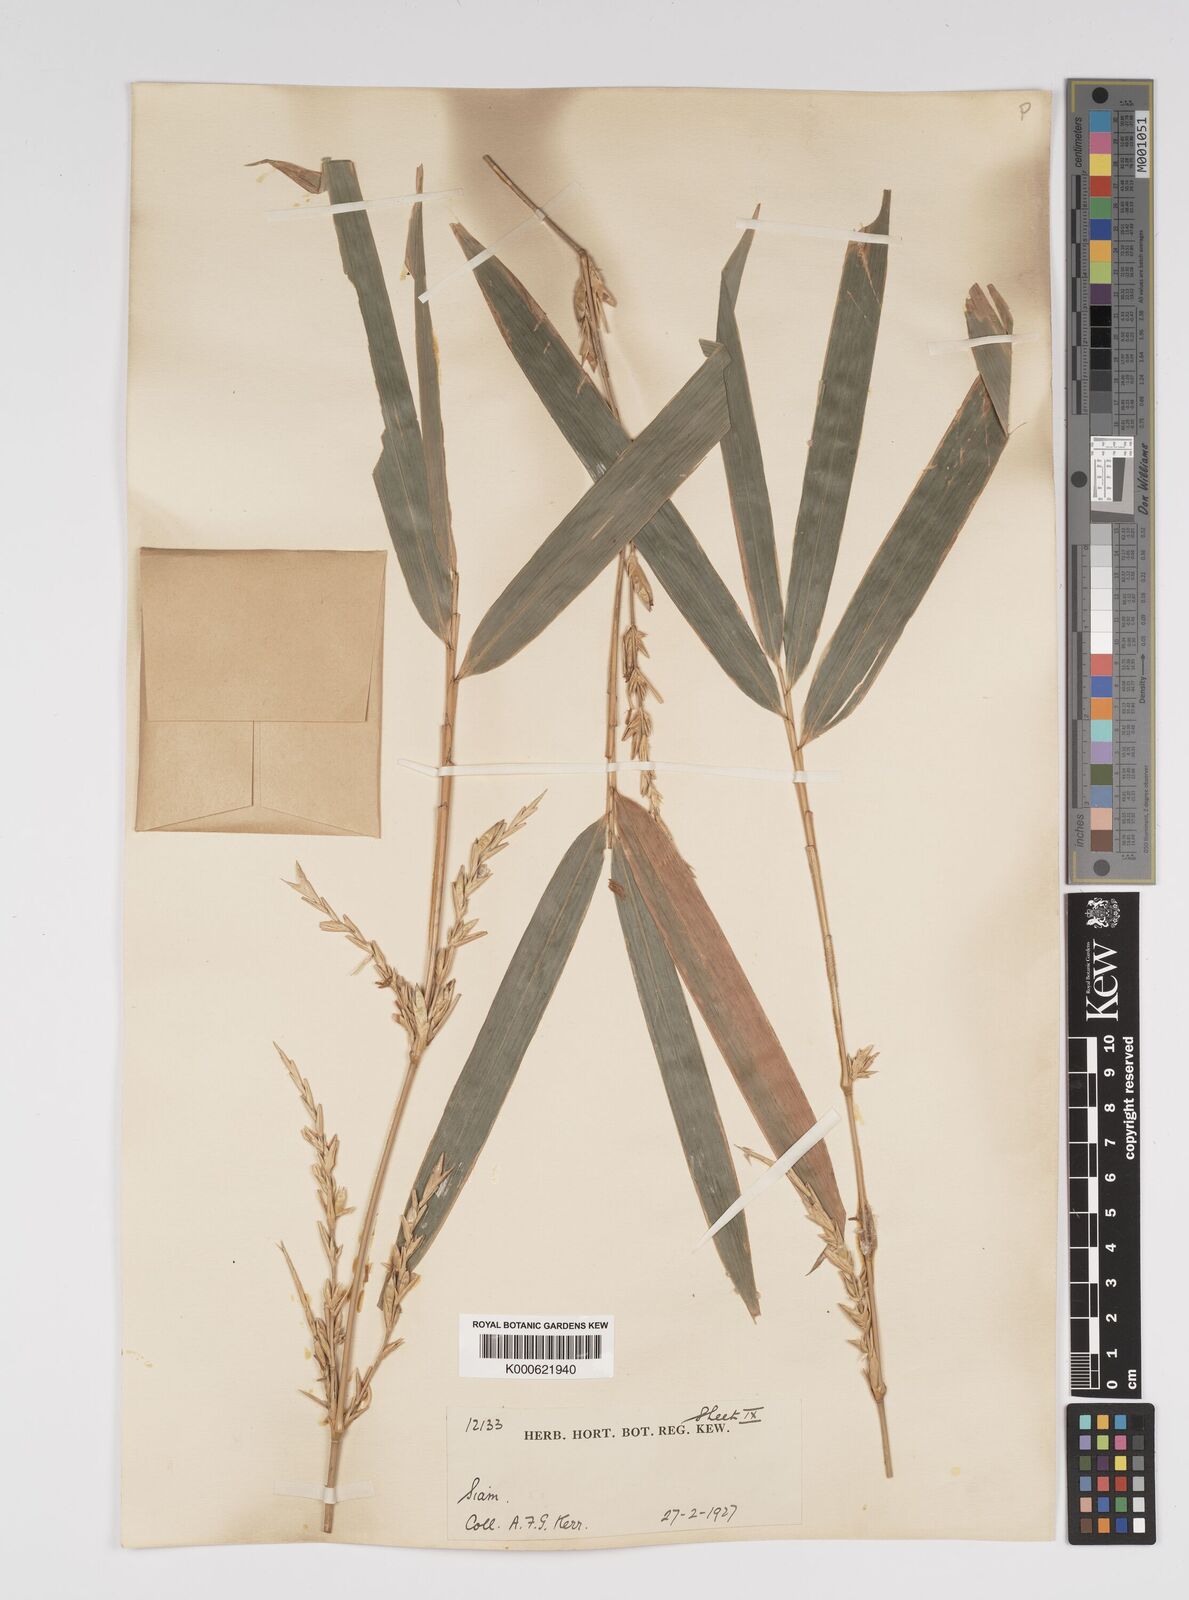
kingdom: Plantae
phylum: Tracheophyta
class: Liliopsida
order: Poales
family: Poaceae
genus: Bambusa
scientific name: Bambusa
